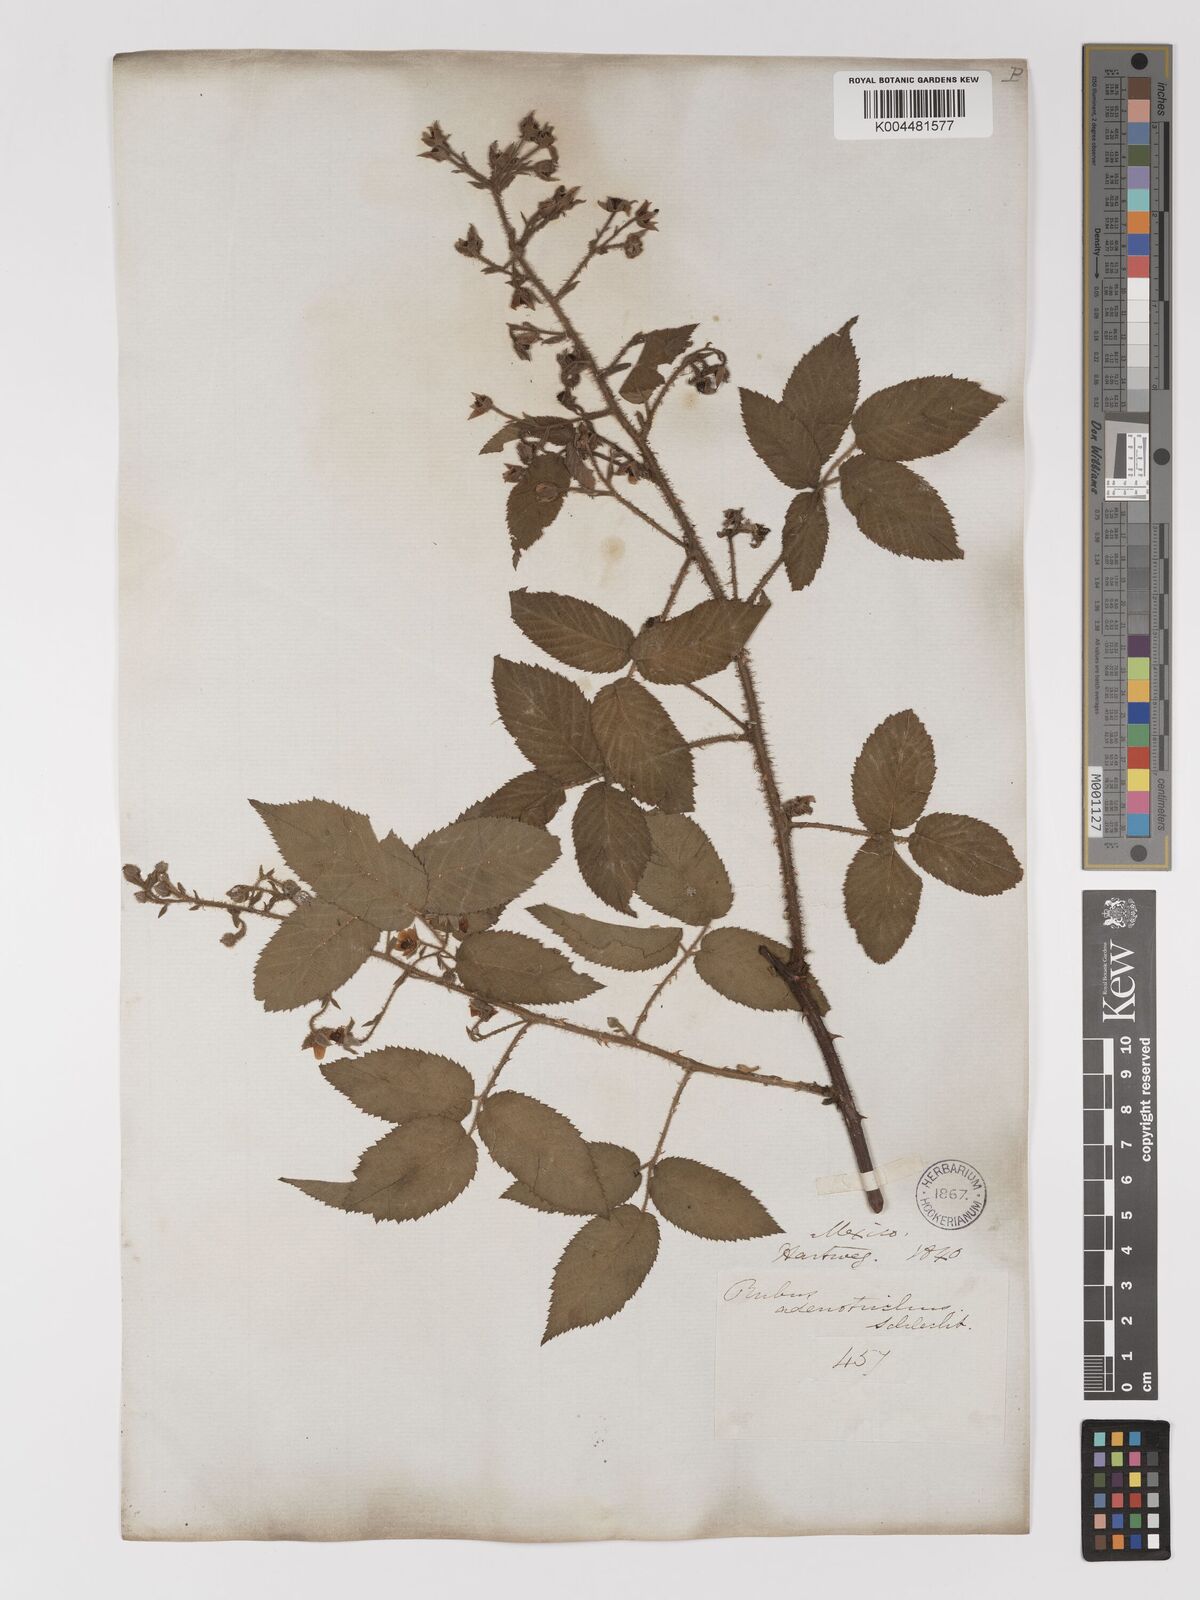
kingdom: Plantae
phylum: Tracheophyta
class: Magnoliopsida
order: Rosales
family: Rosaceae
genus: Rubus
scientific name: Rubus adenotrichos
